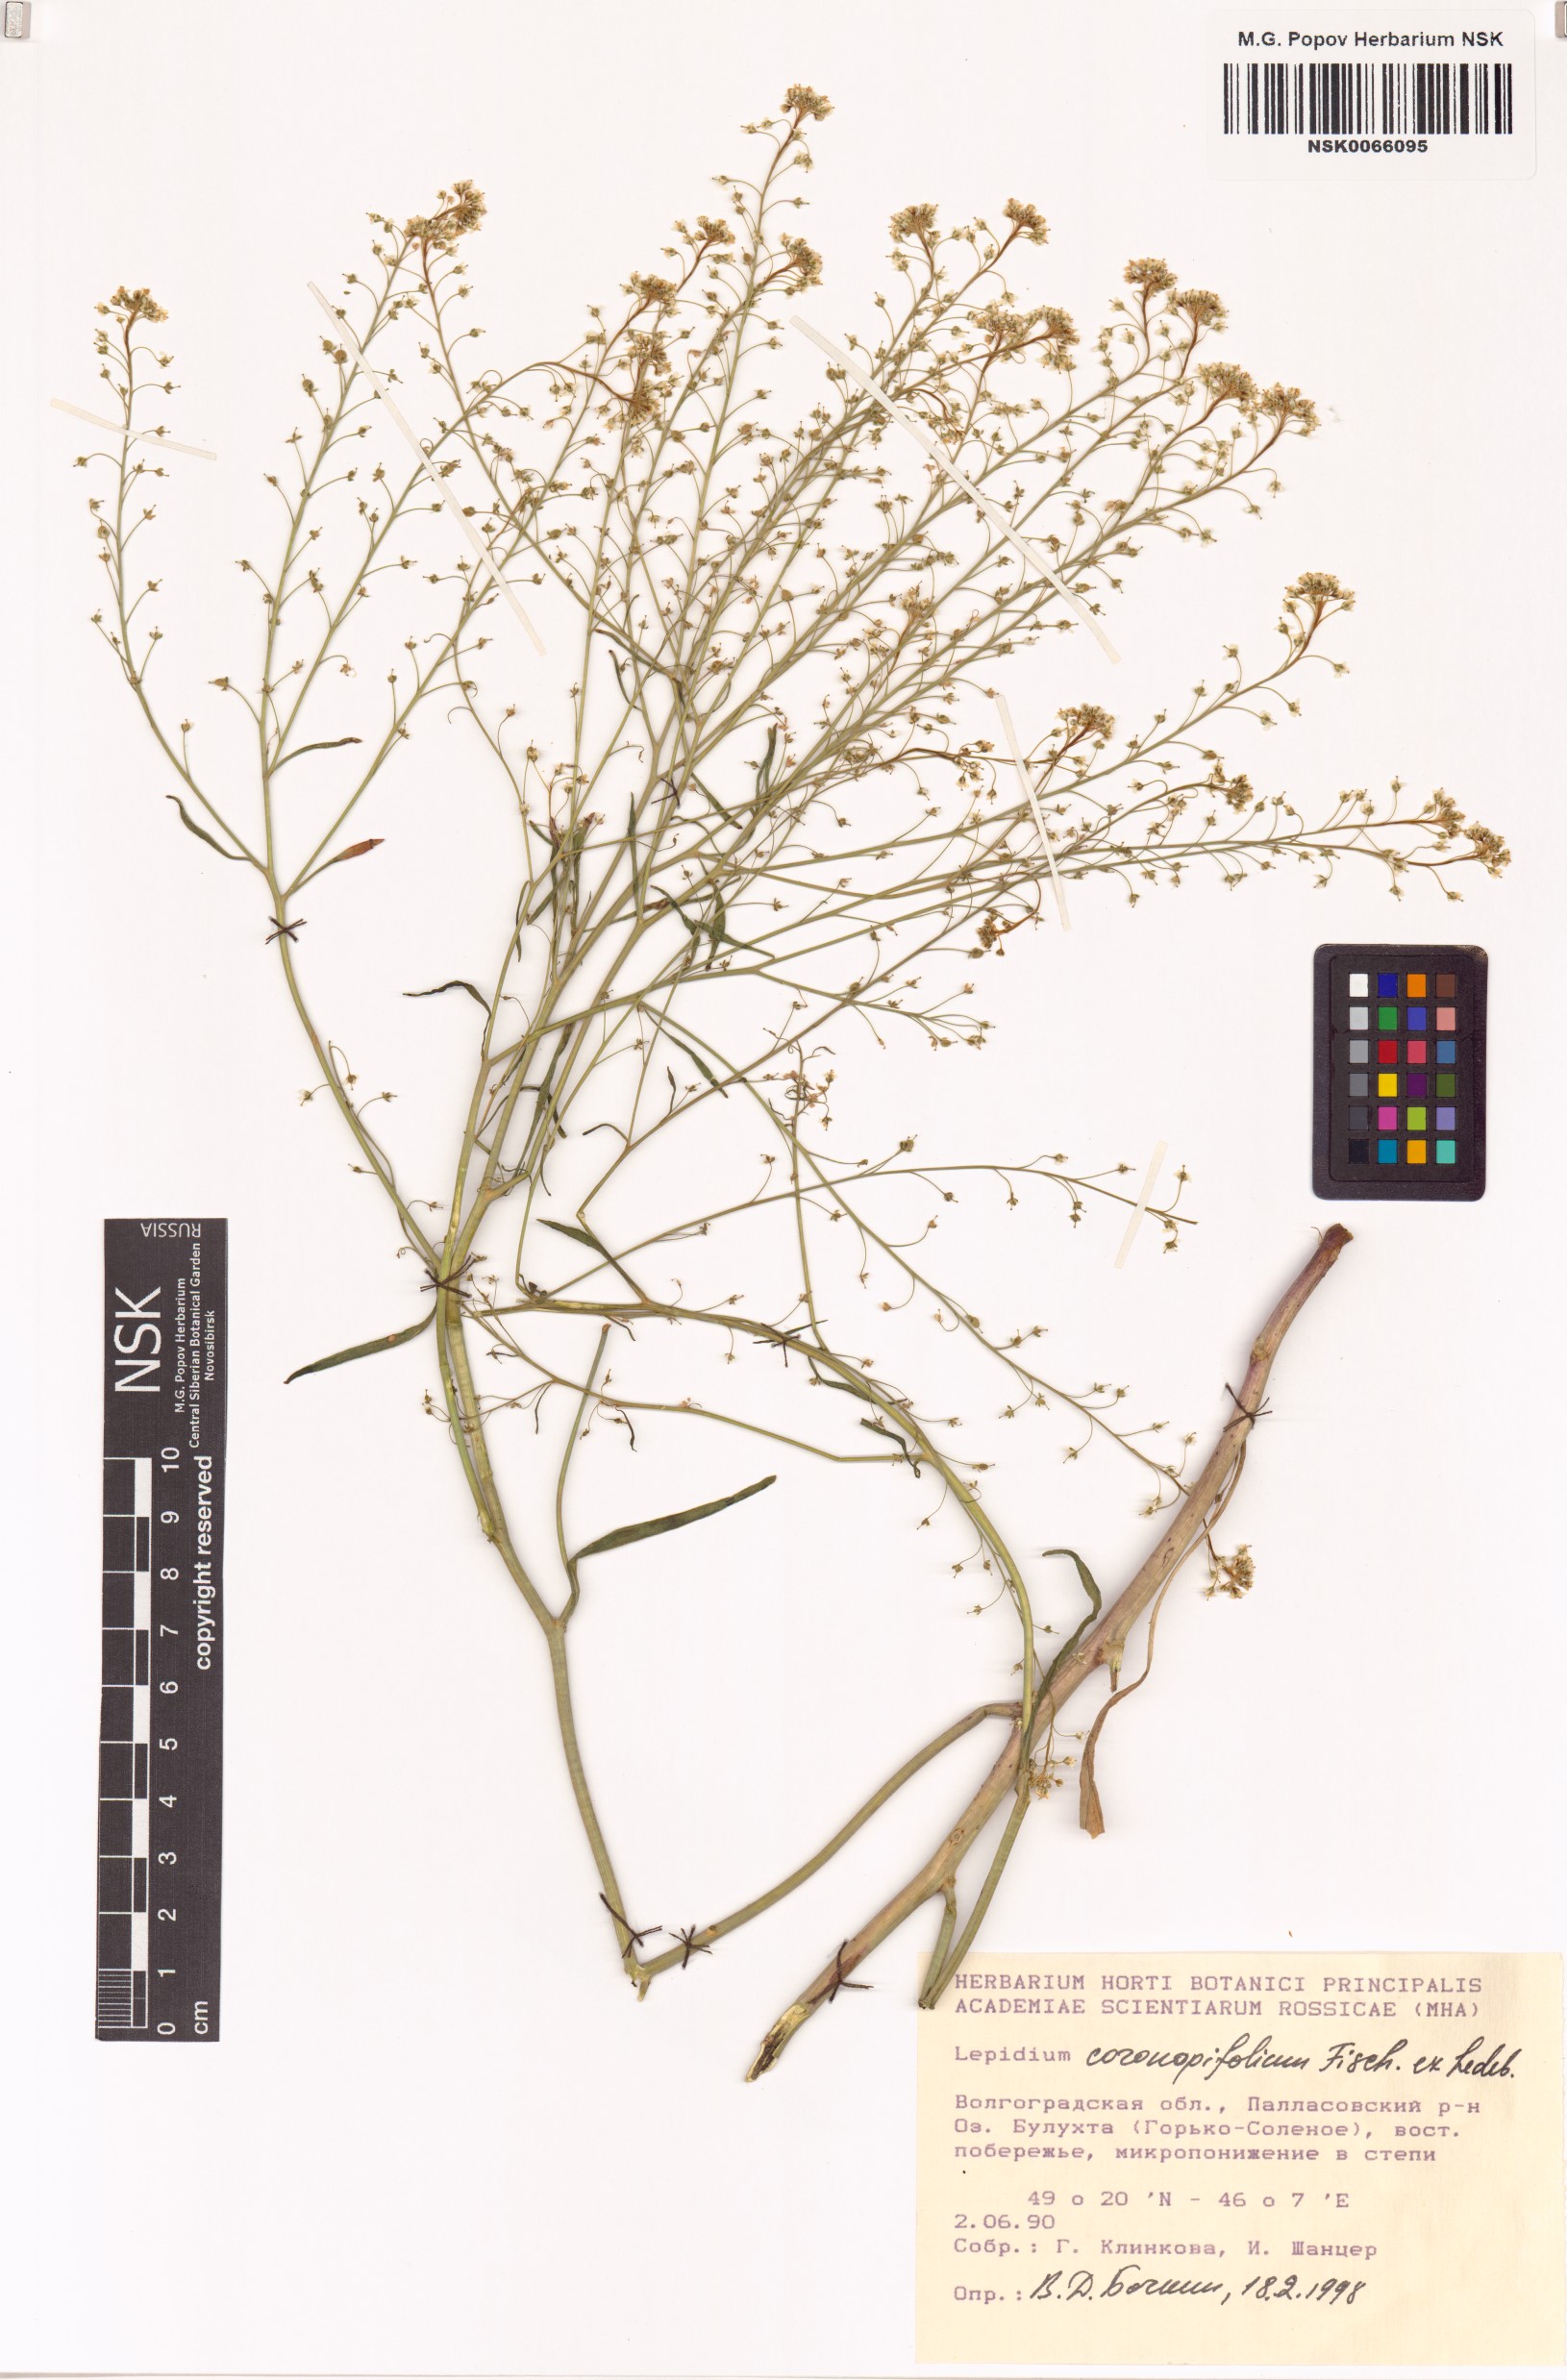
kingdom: Plantae
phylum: Tracheophyta
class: Magnoliopsida
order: Brassicales
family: Brassicaceae
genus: Lepidium
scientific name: Lepidium bipinnatifidum
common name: Wayside pepperwort
